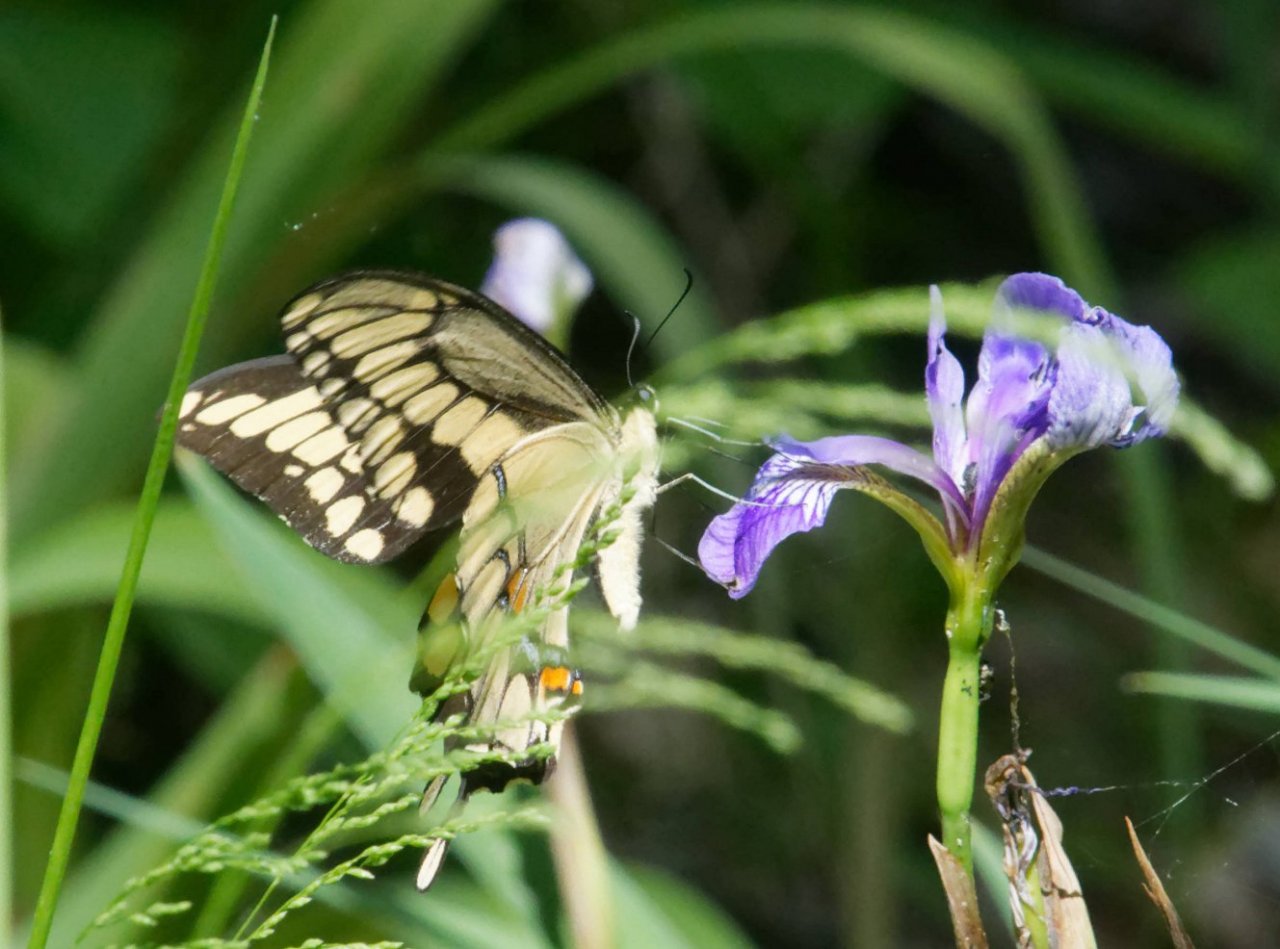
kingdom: Animalia
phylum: Arthropoda
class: Insecta
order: Lepidoptera
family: Papilionidae
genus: Papilio
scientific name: Papilio cresphontes
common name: Eastern Giant Swallowtail
